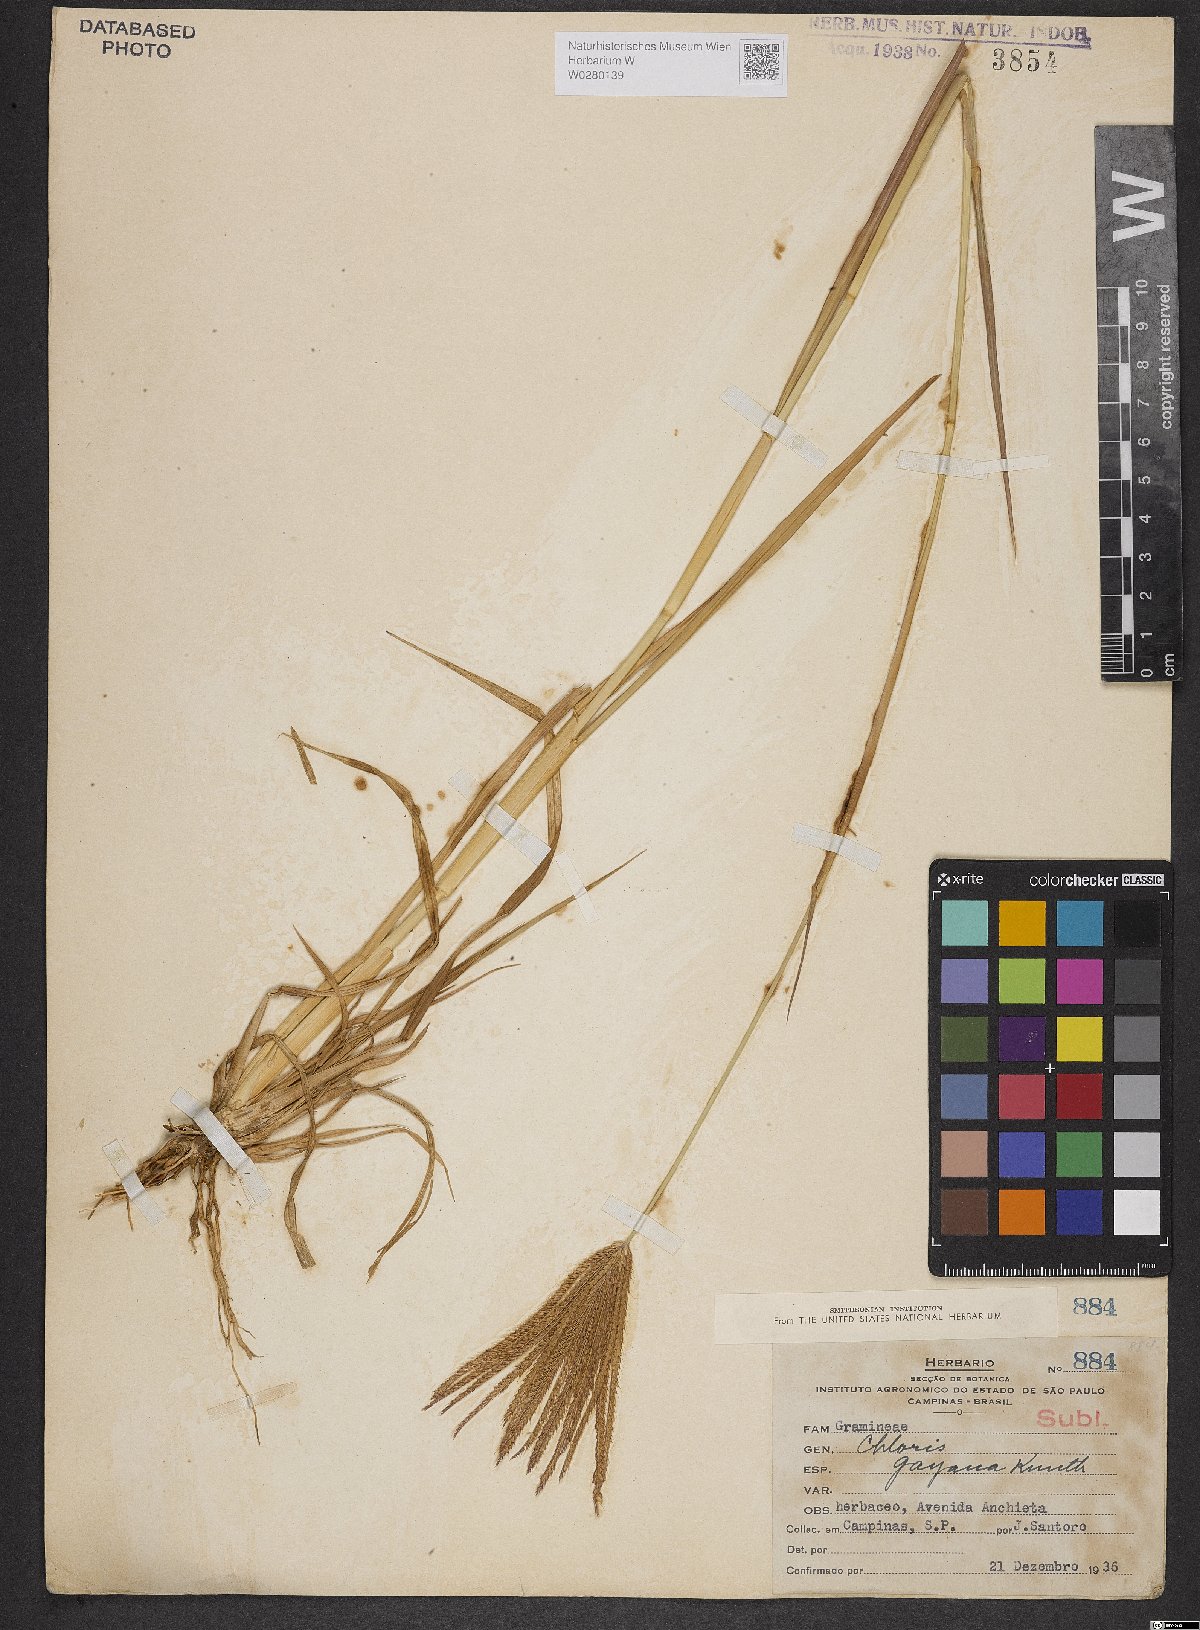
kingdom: Plantae
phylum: Tracheophyta
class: Liliopsida
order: Poales
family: Poaceae
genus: Chloris
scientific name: Chloris gayana
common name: Rhodes grass
